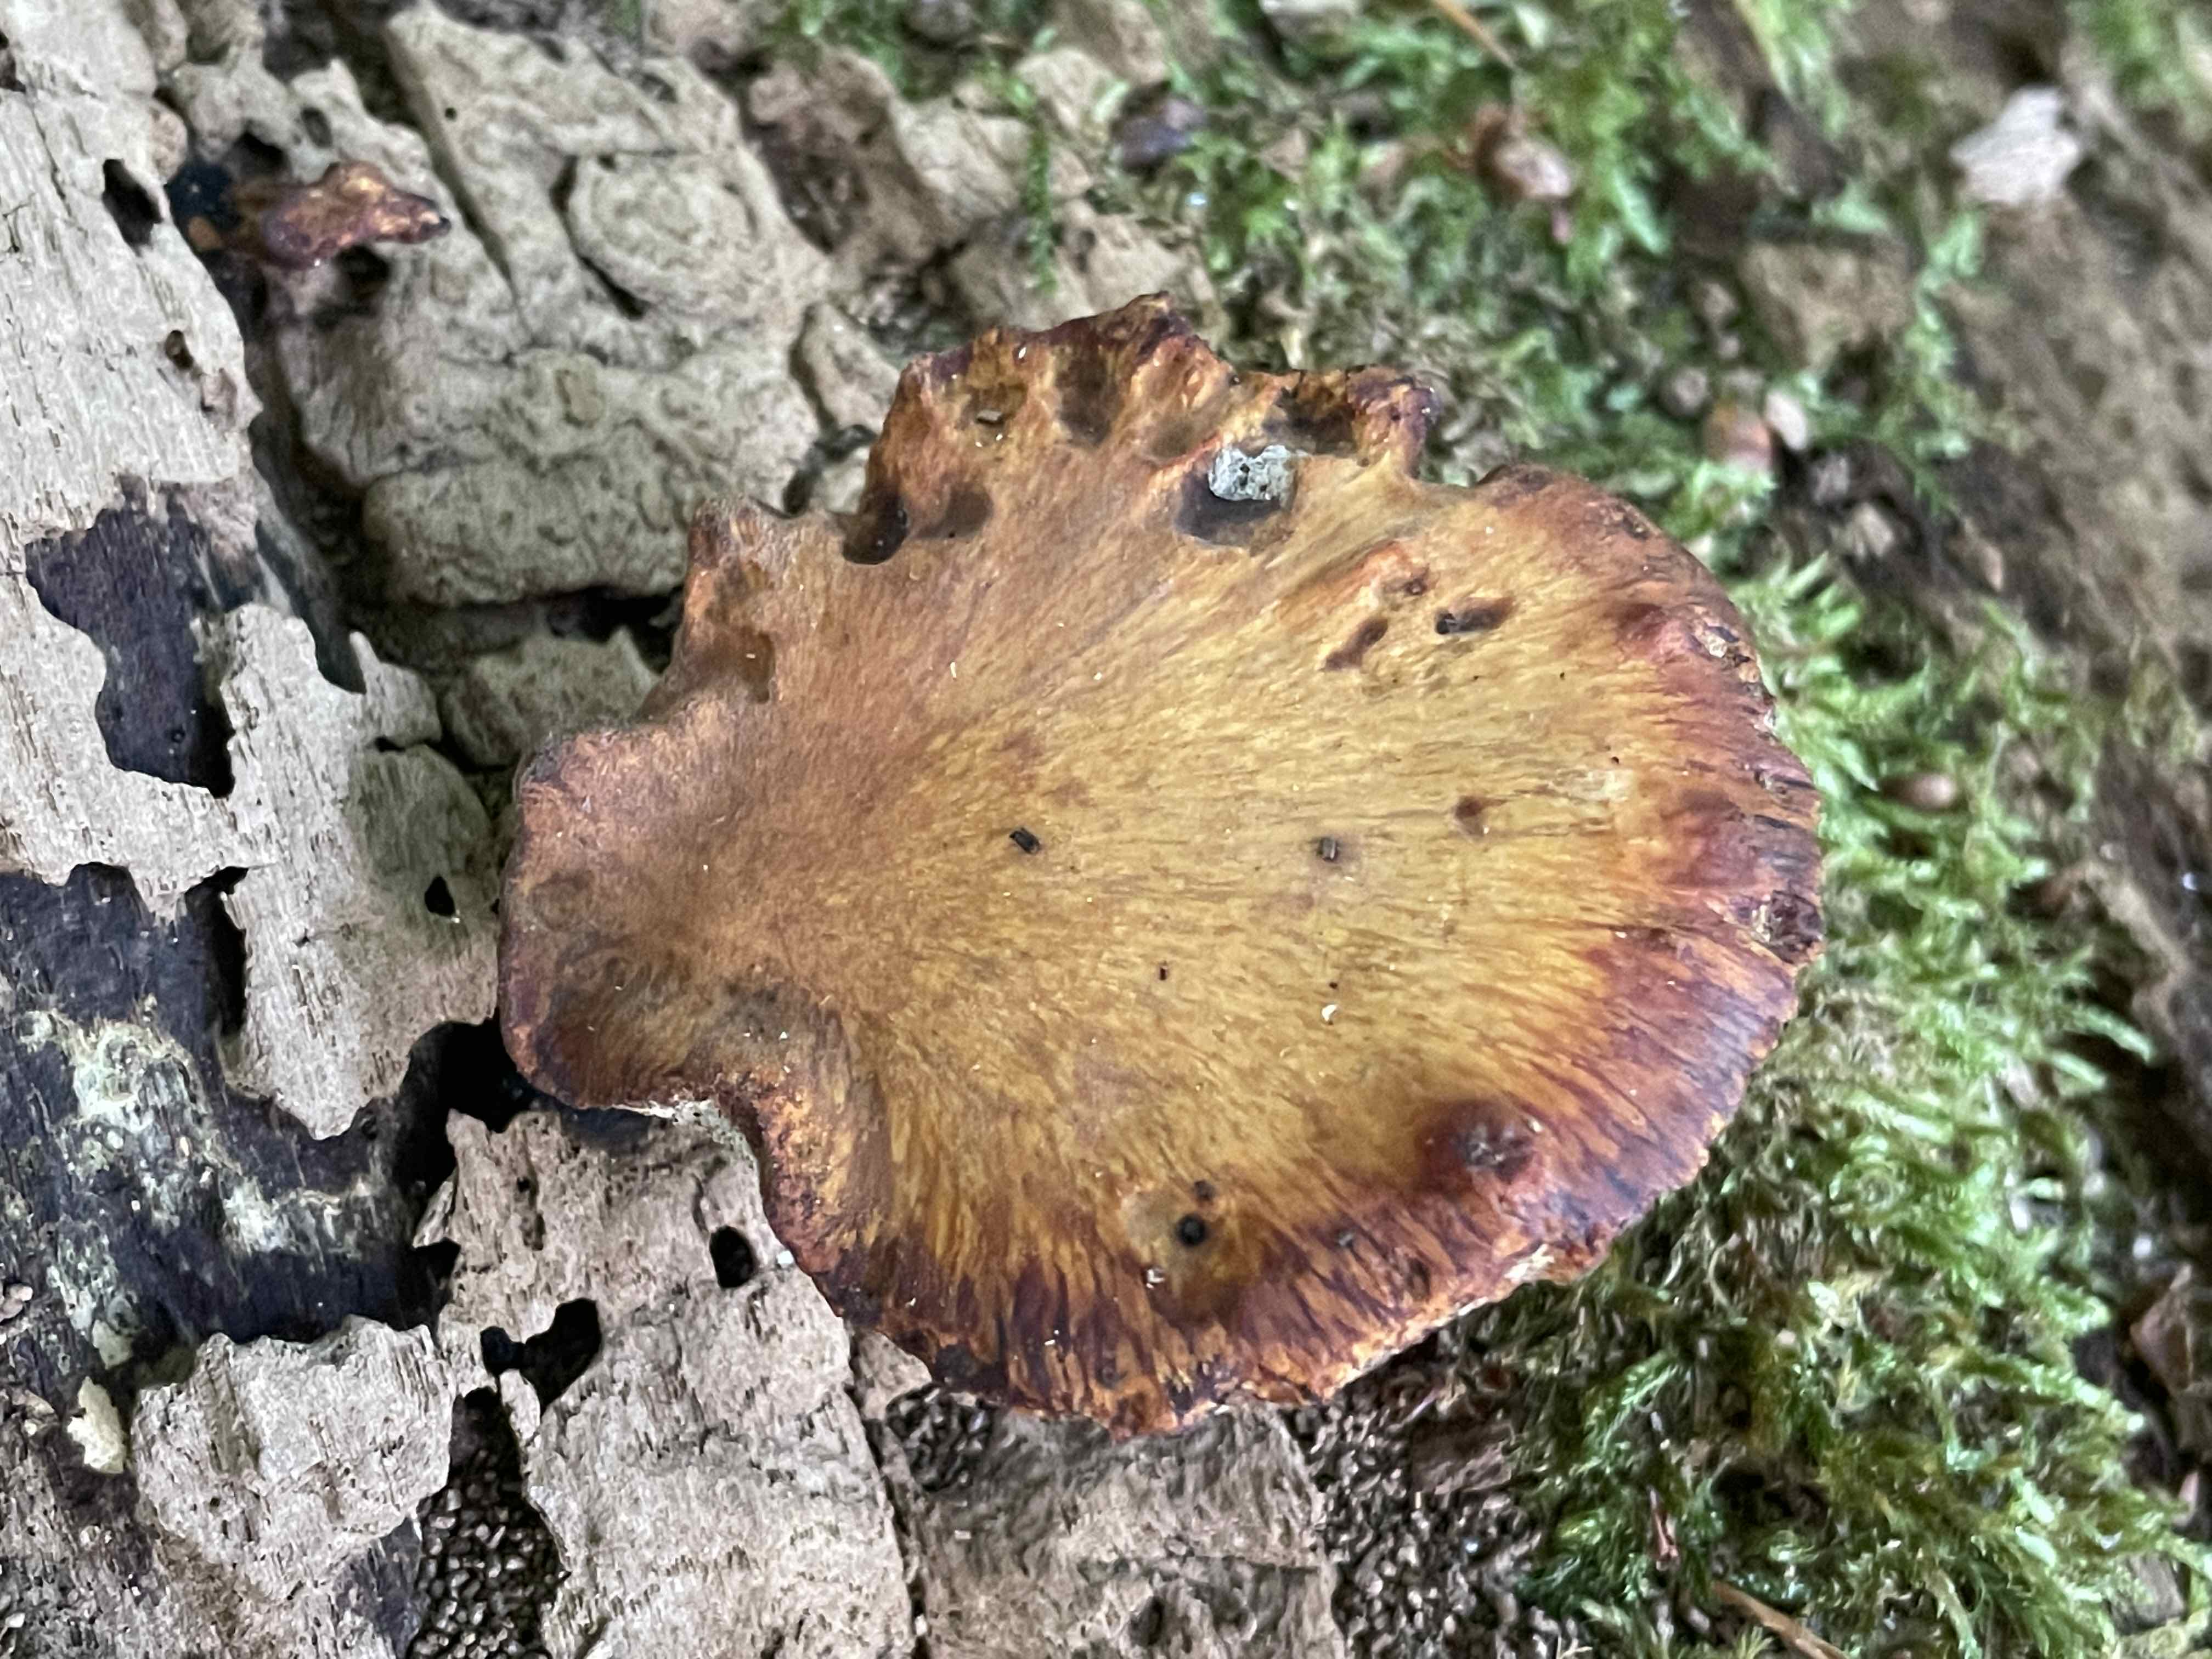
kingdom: Fungi
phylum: Basidiomycota
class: Agaricomycetes
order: Polyporales
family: Polyporaceae
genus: Cerioporus
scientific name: Cerioporus varius
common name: foranderlig stilkporesvamp
